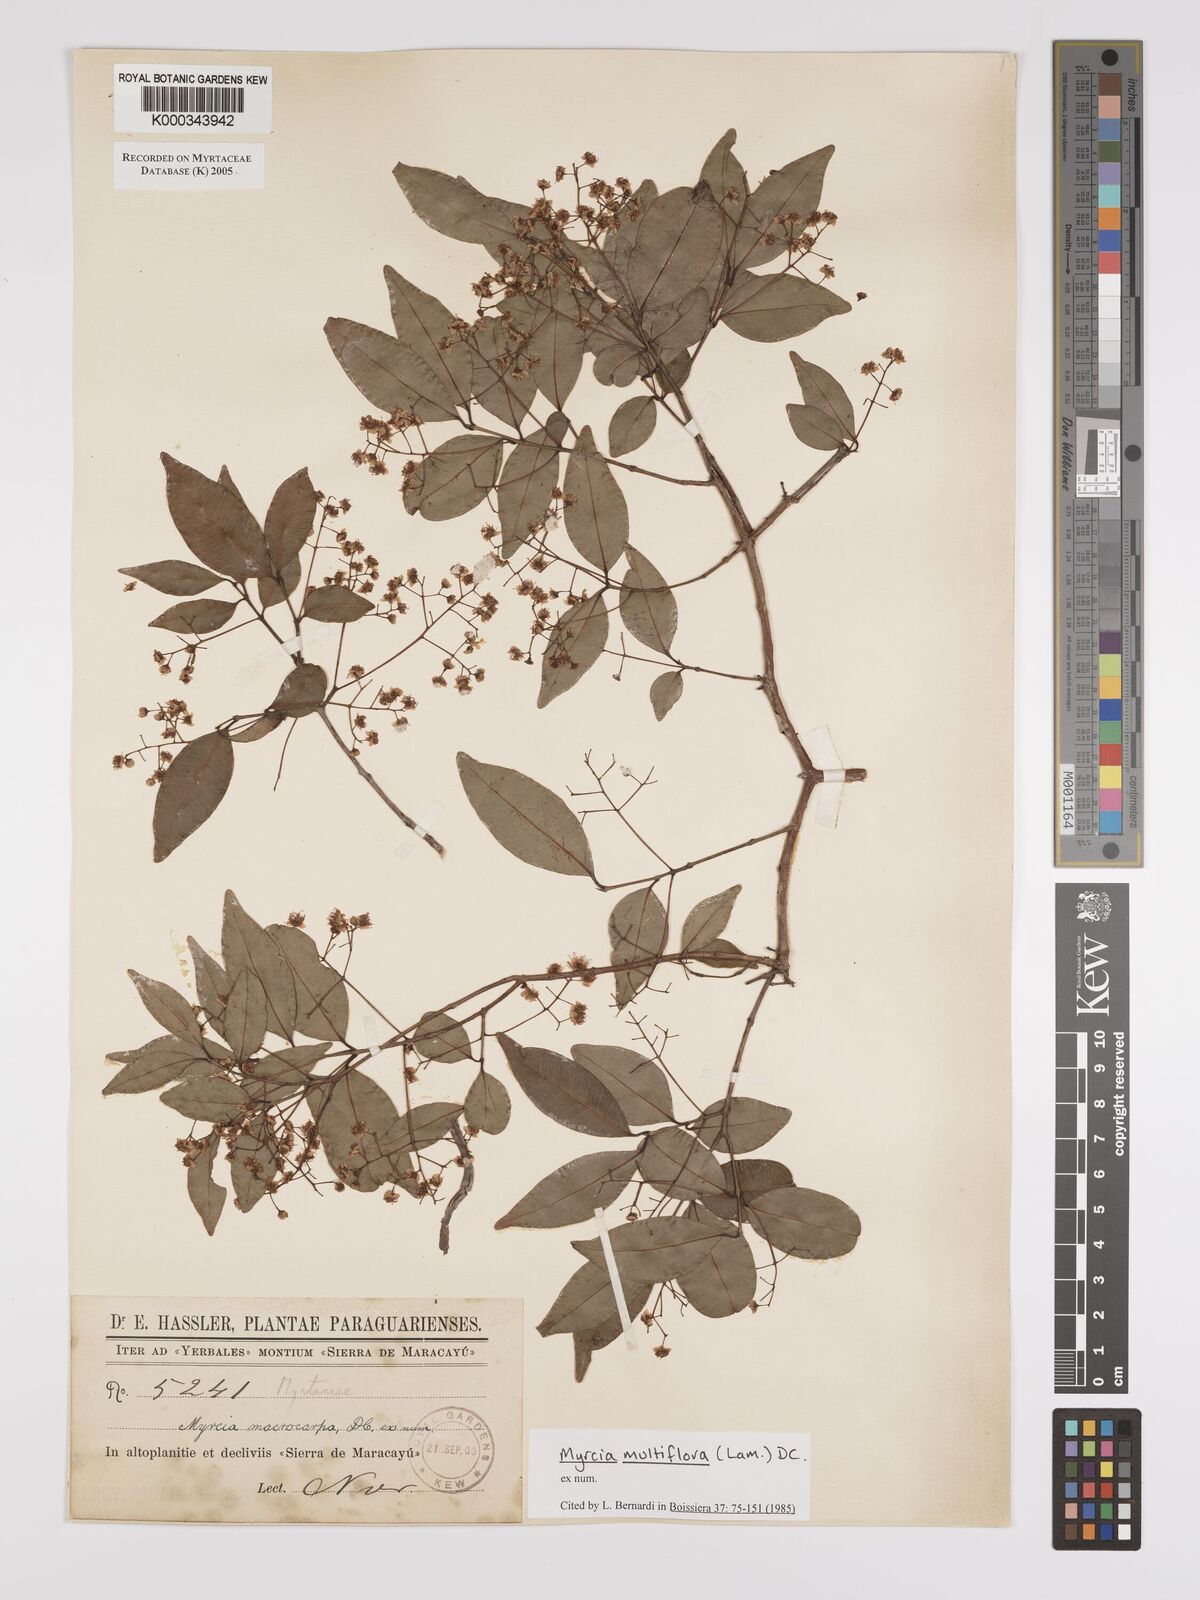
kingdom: Plantae
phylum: Tracheophyta
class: Magnoliopsida
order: Myrtales
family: Myrtaceae
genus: Myrcia
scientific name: Myrcia multiflora
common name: Pedra hume
